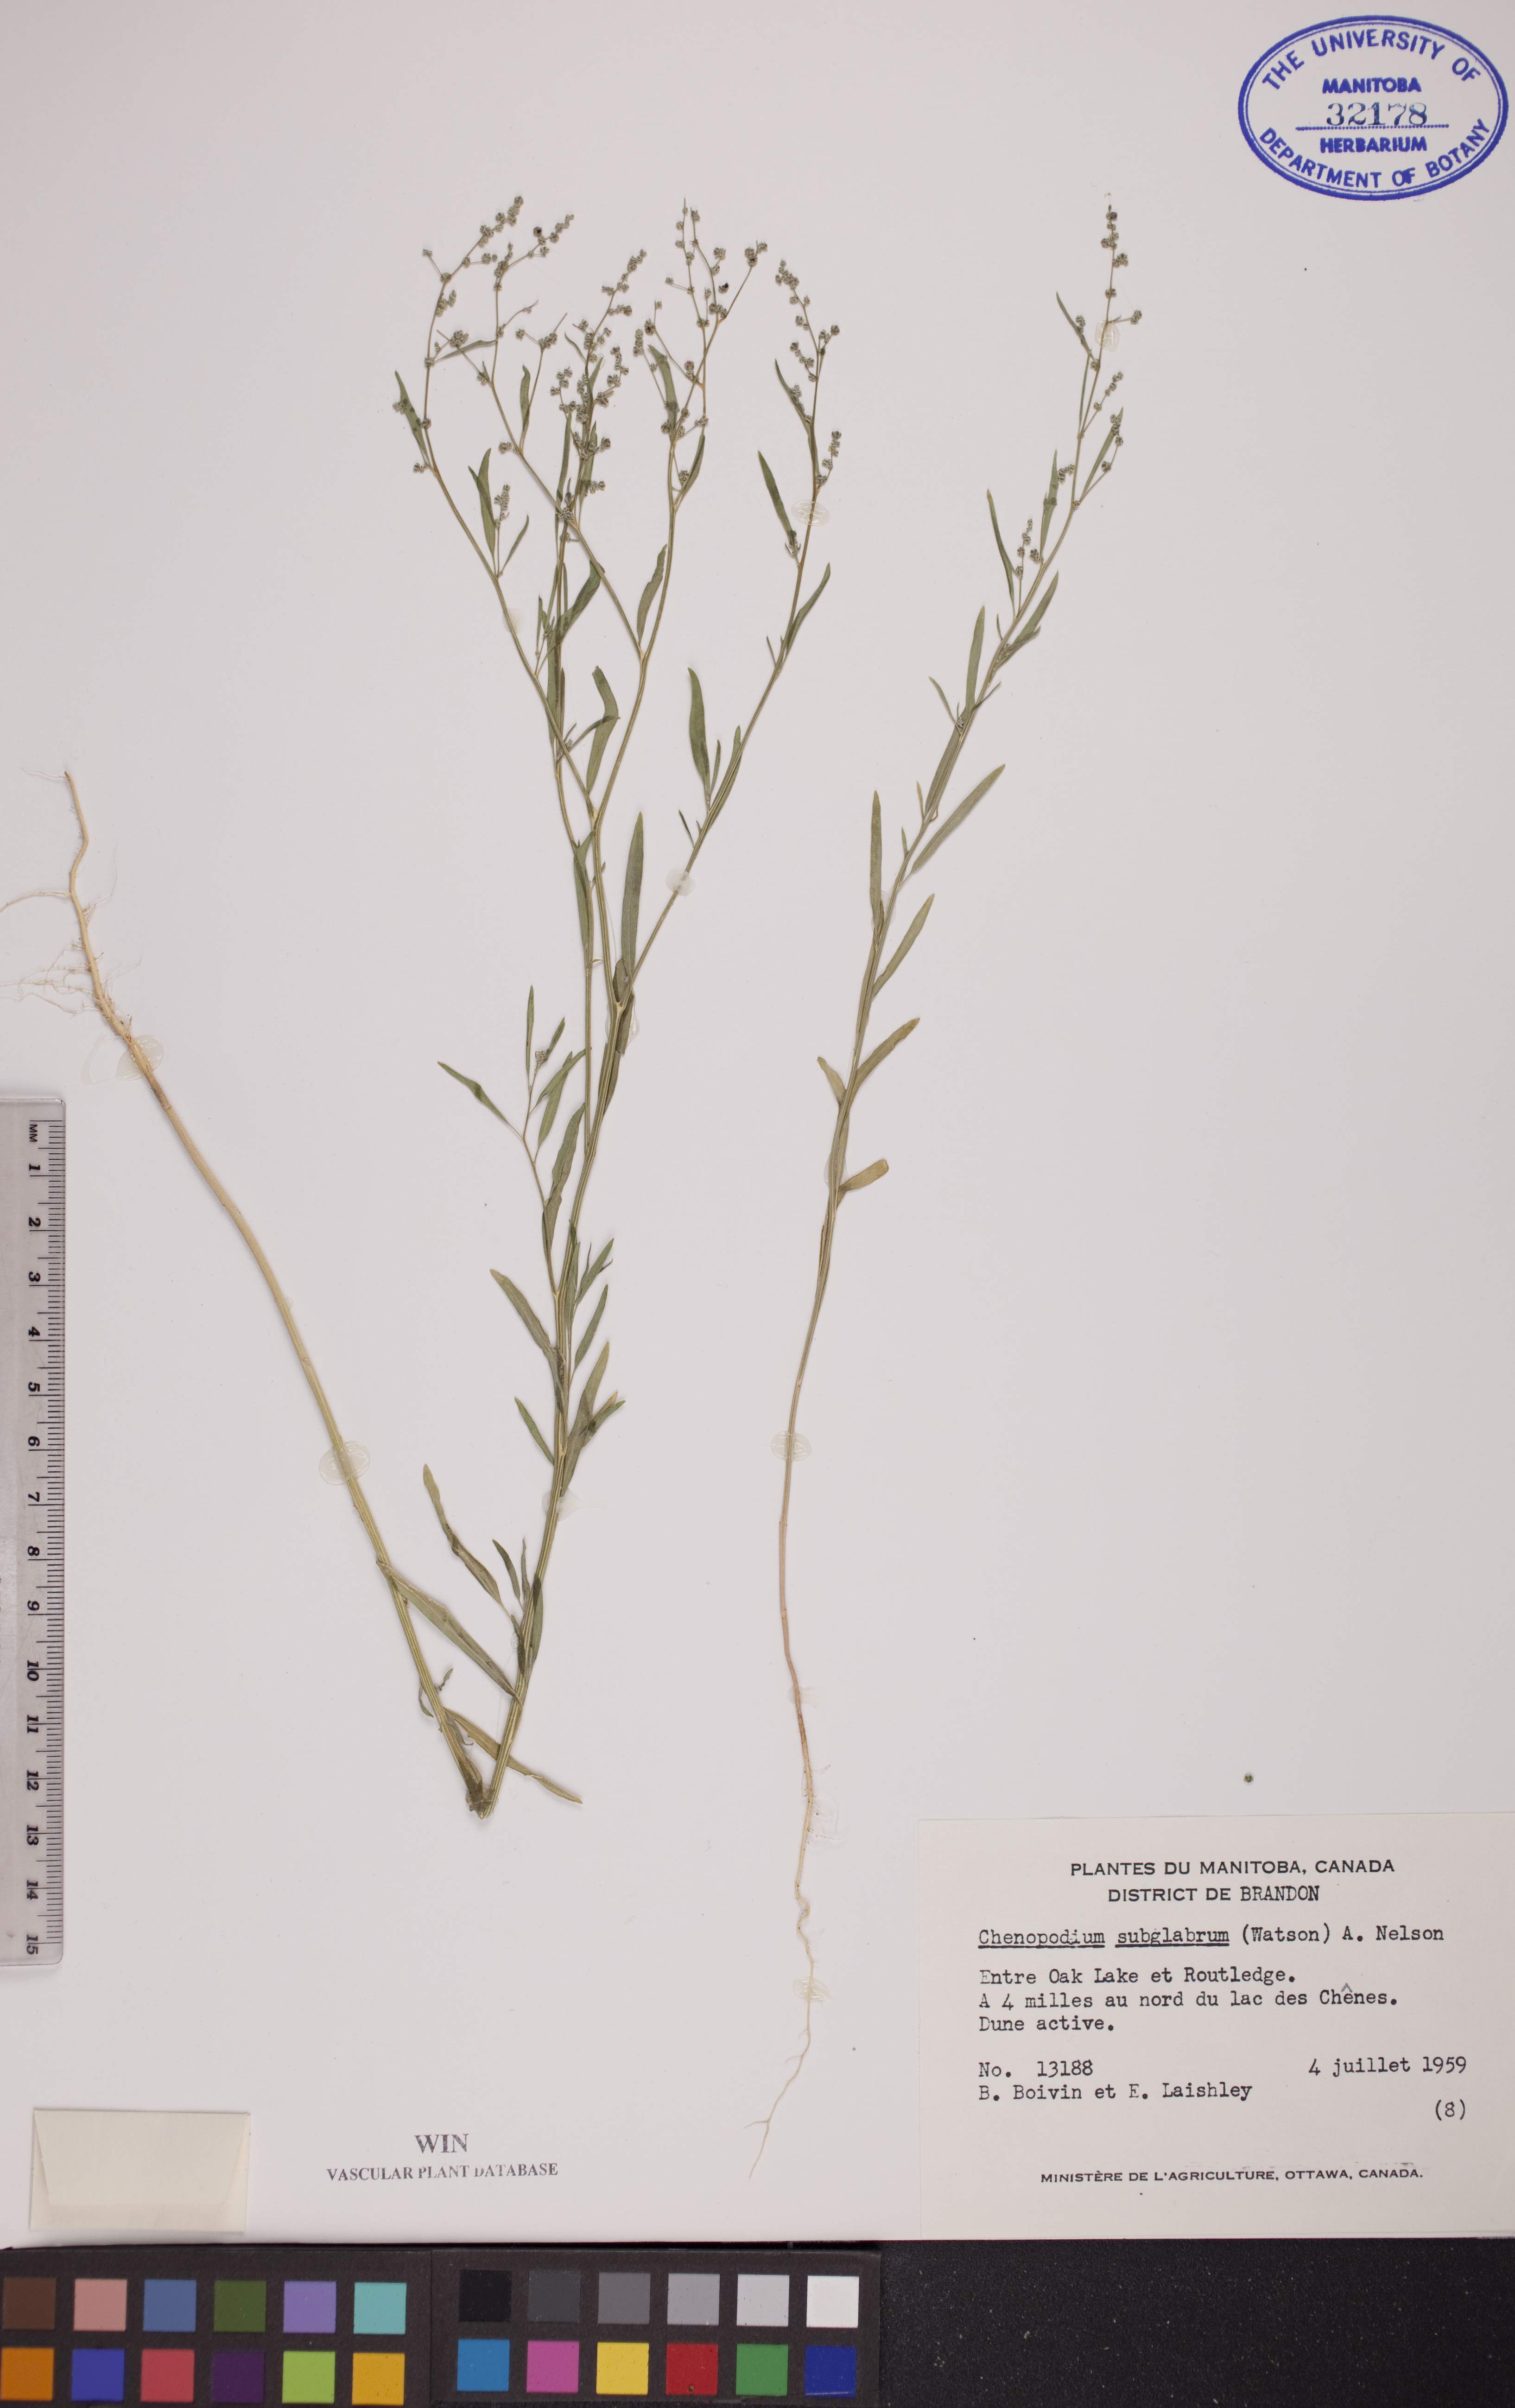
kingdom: Plantae
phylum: Tracheophyta
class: Magnoliopsida
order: Caryophyllales
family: Amaranthaceae
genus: Chenopodium
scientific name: Chenopodium subglabrum
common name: Smooth goosefoot
